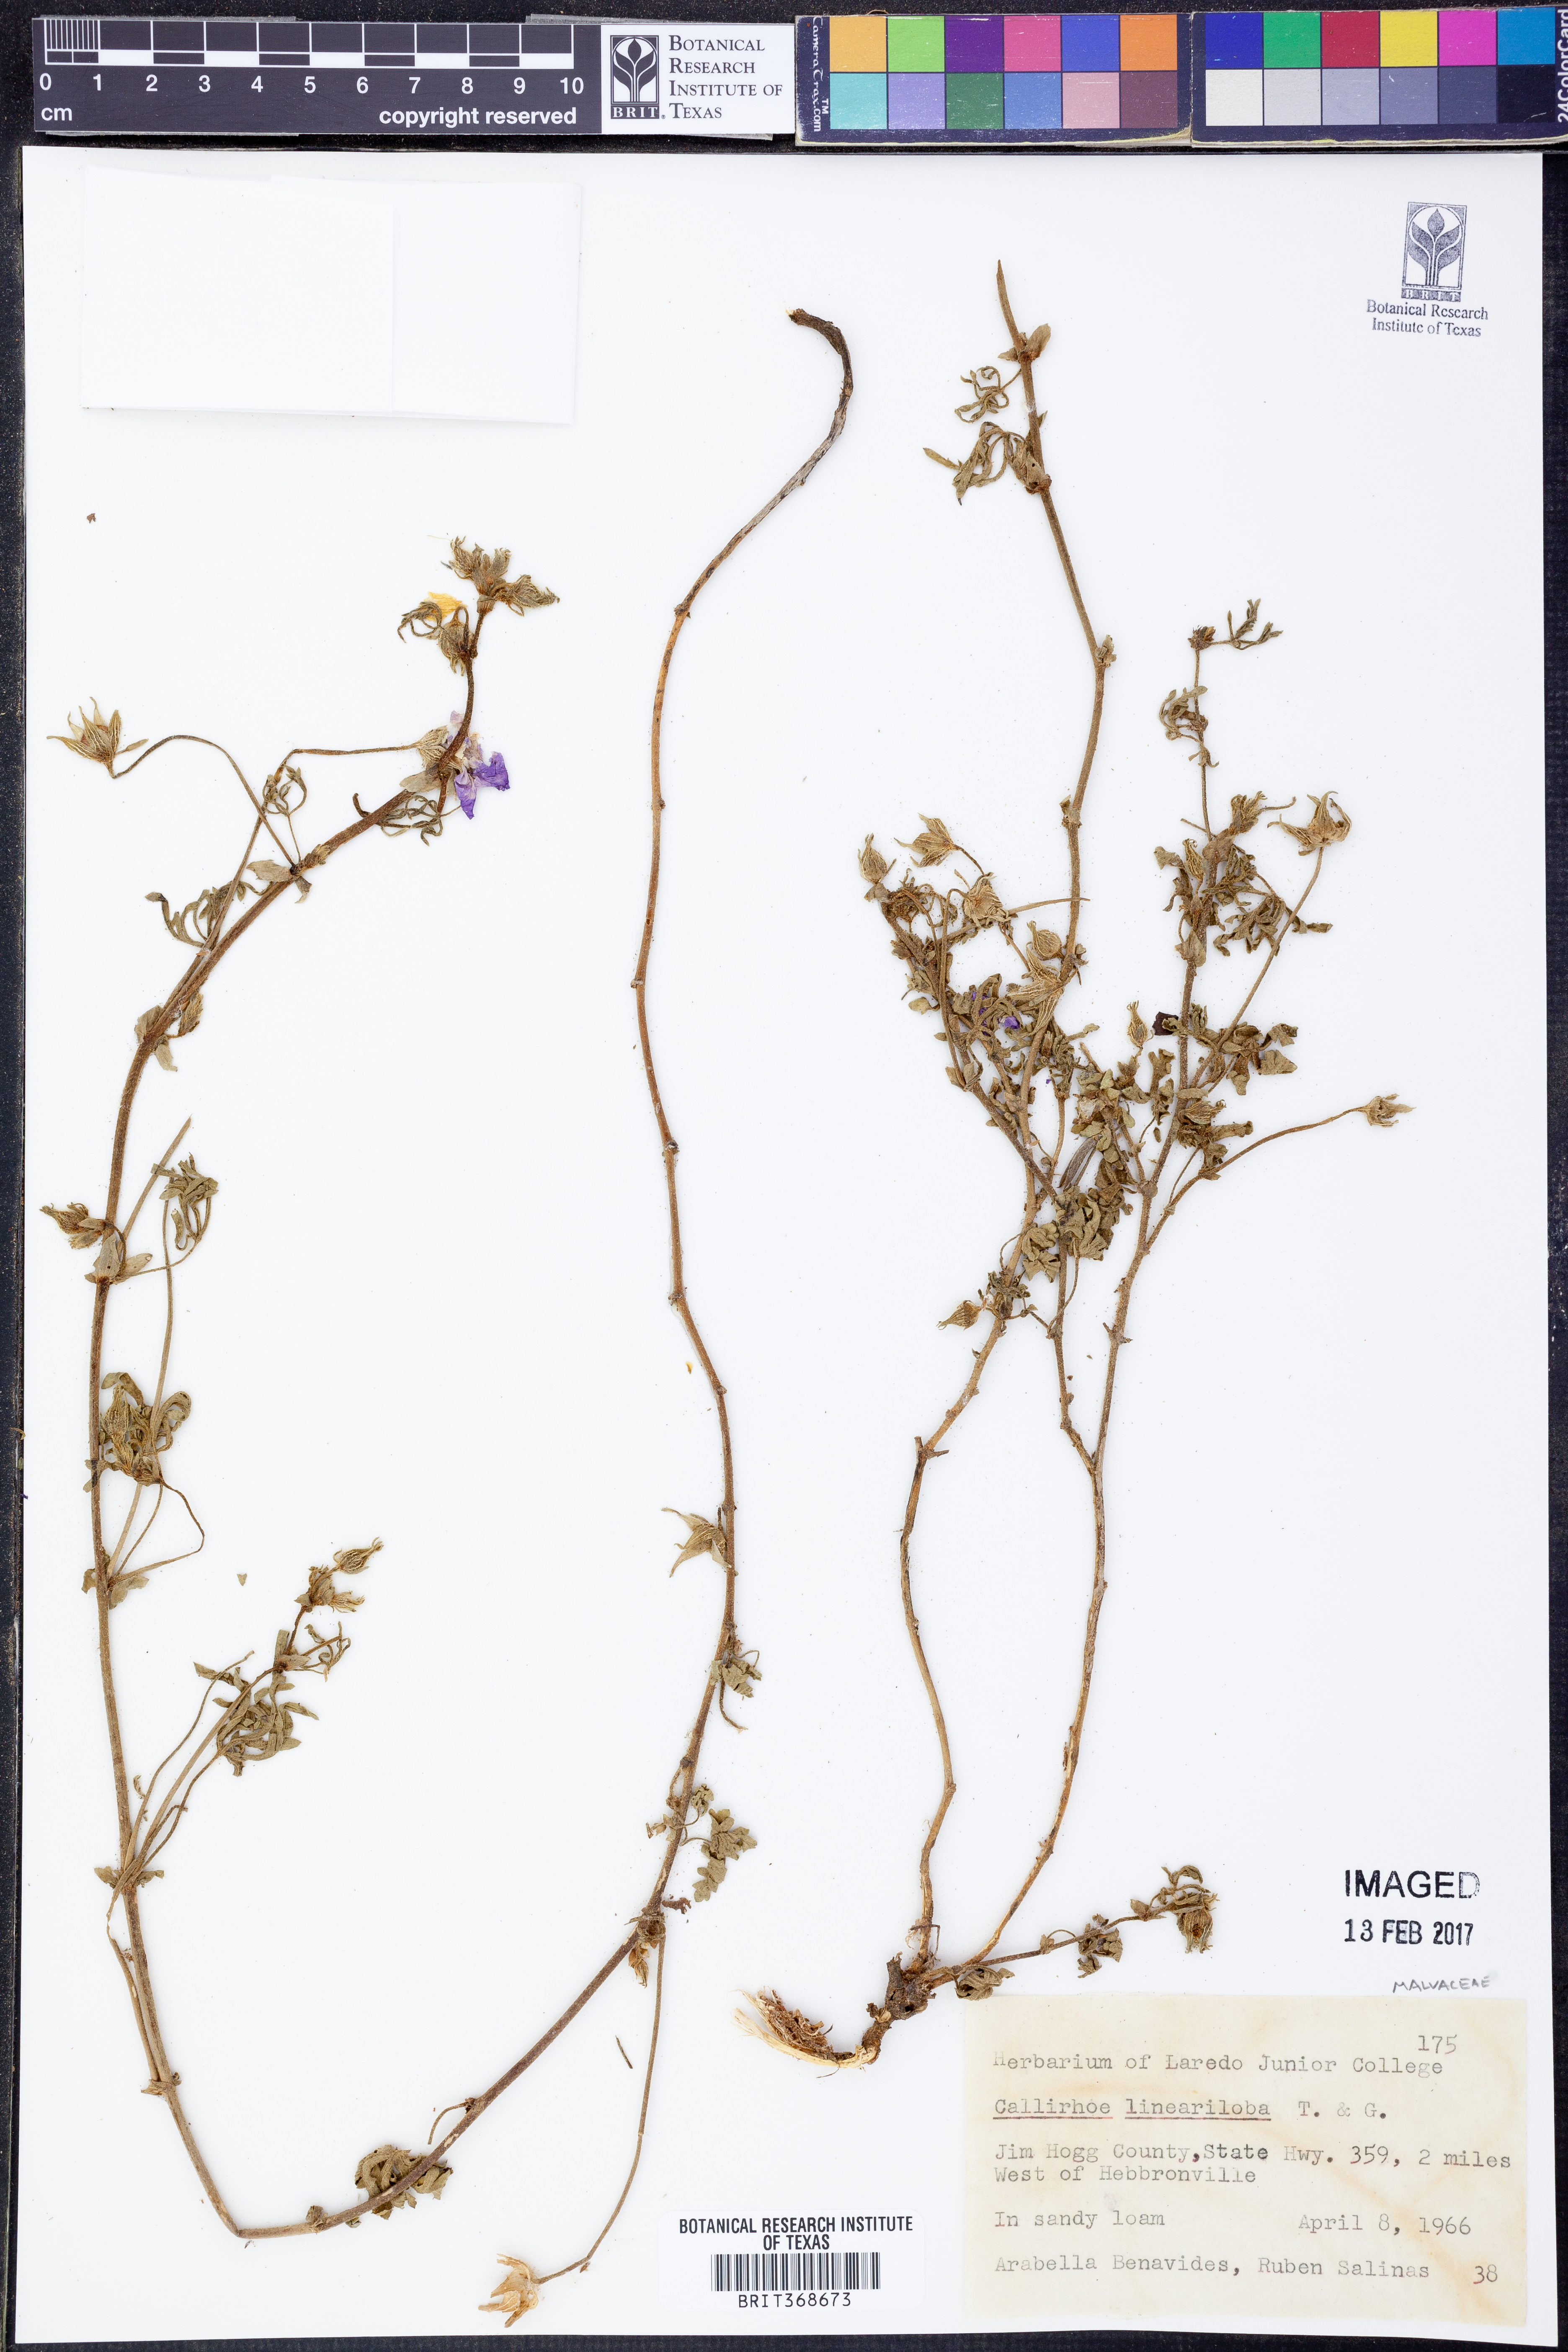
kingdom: Plantae
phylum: Tracheophyta
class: Magnoliopsida
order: Malvales
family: Malvaceae
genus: Callirhoe
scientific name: Callirhoe involucrata
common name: Purple poppy-mallow
